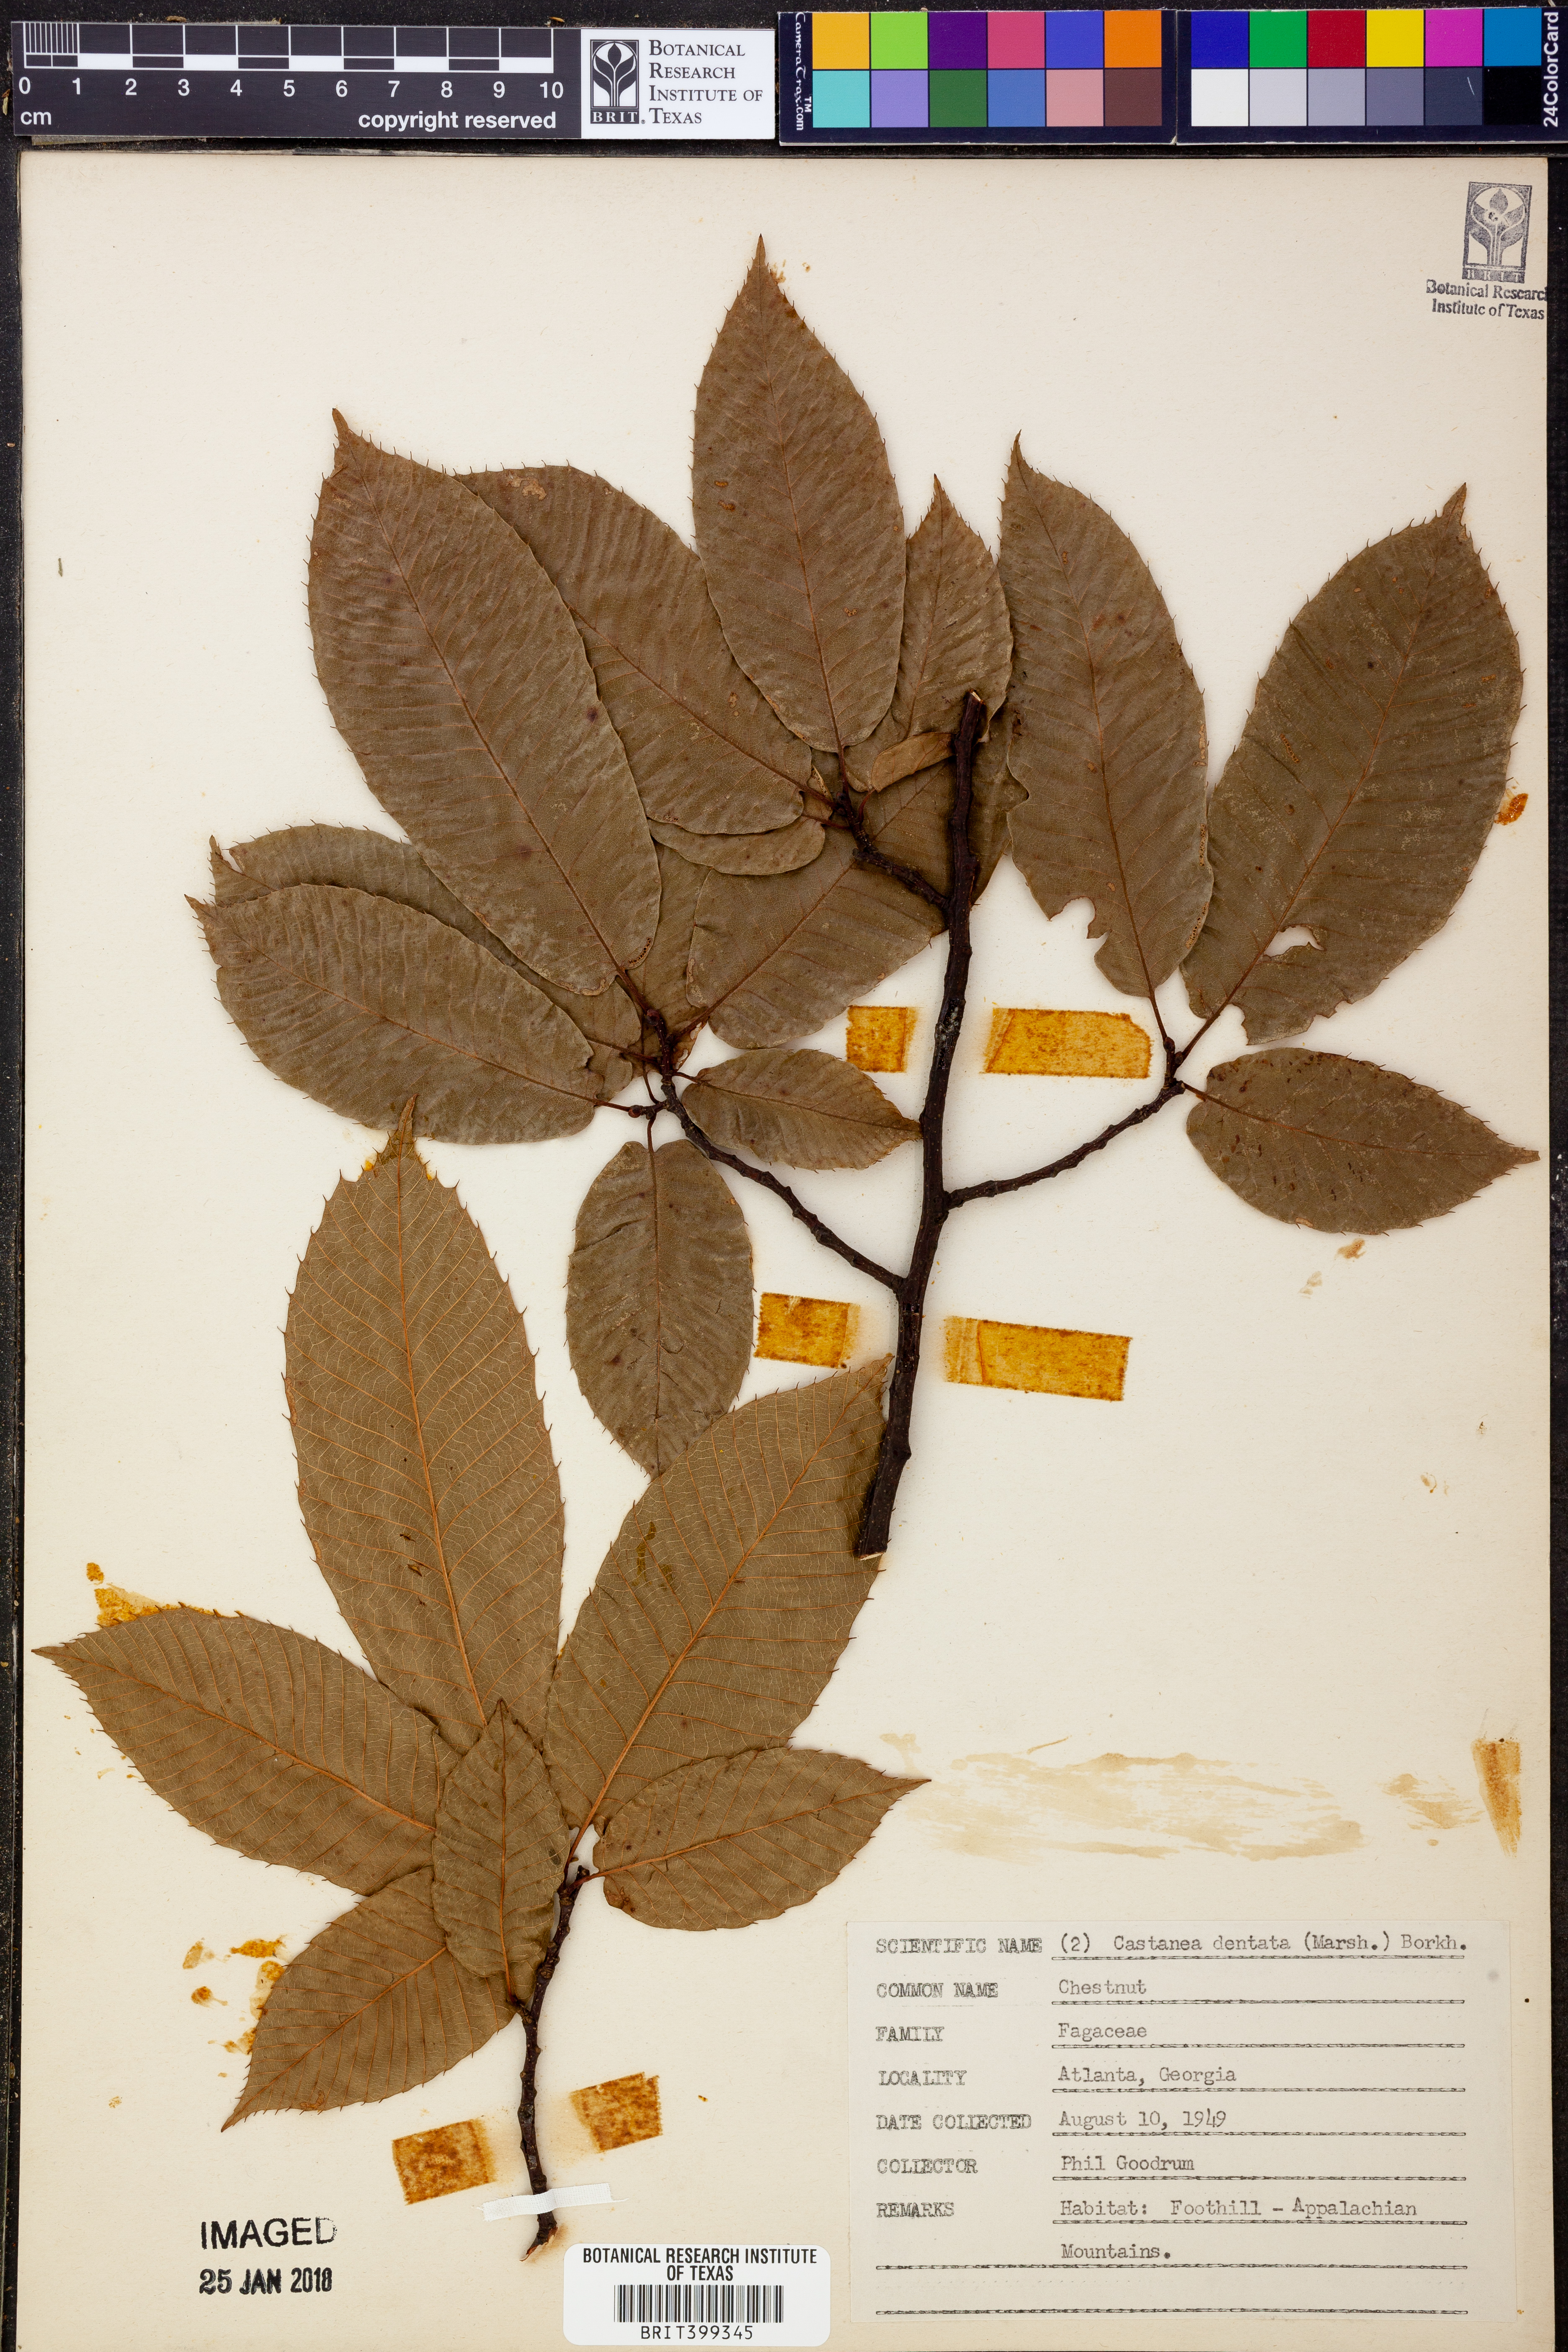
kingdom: Plantae
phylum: Tracheophyta
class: Magnoliopsida
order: Fagales
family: Fagaceae
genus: Castanea
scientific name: Castanea dentata
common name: American chestnut
